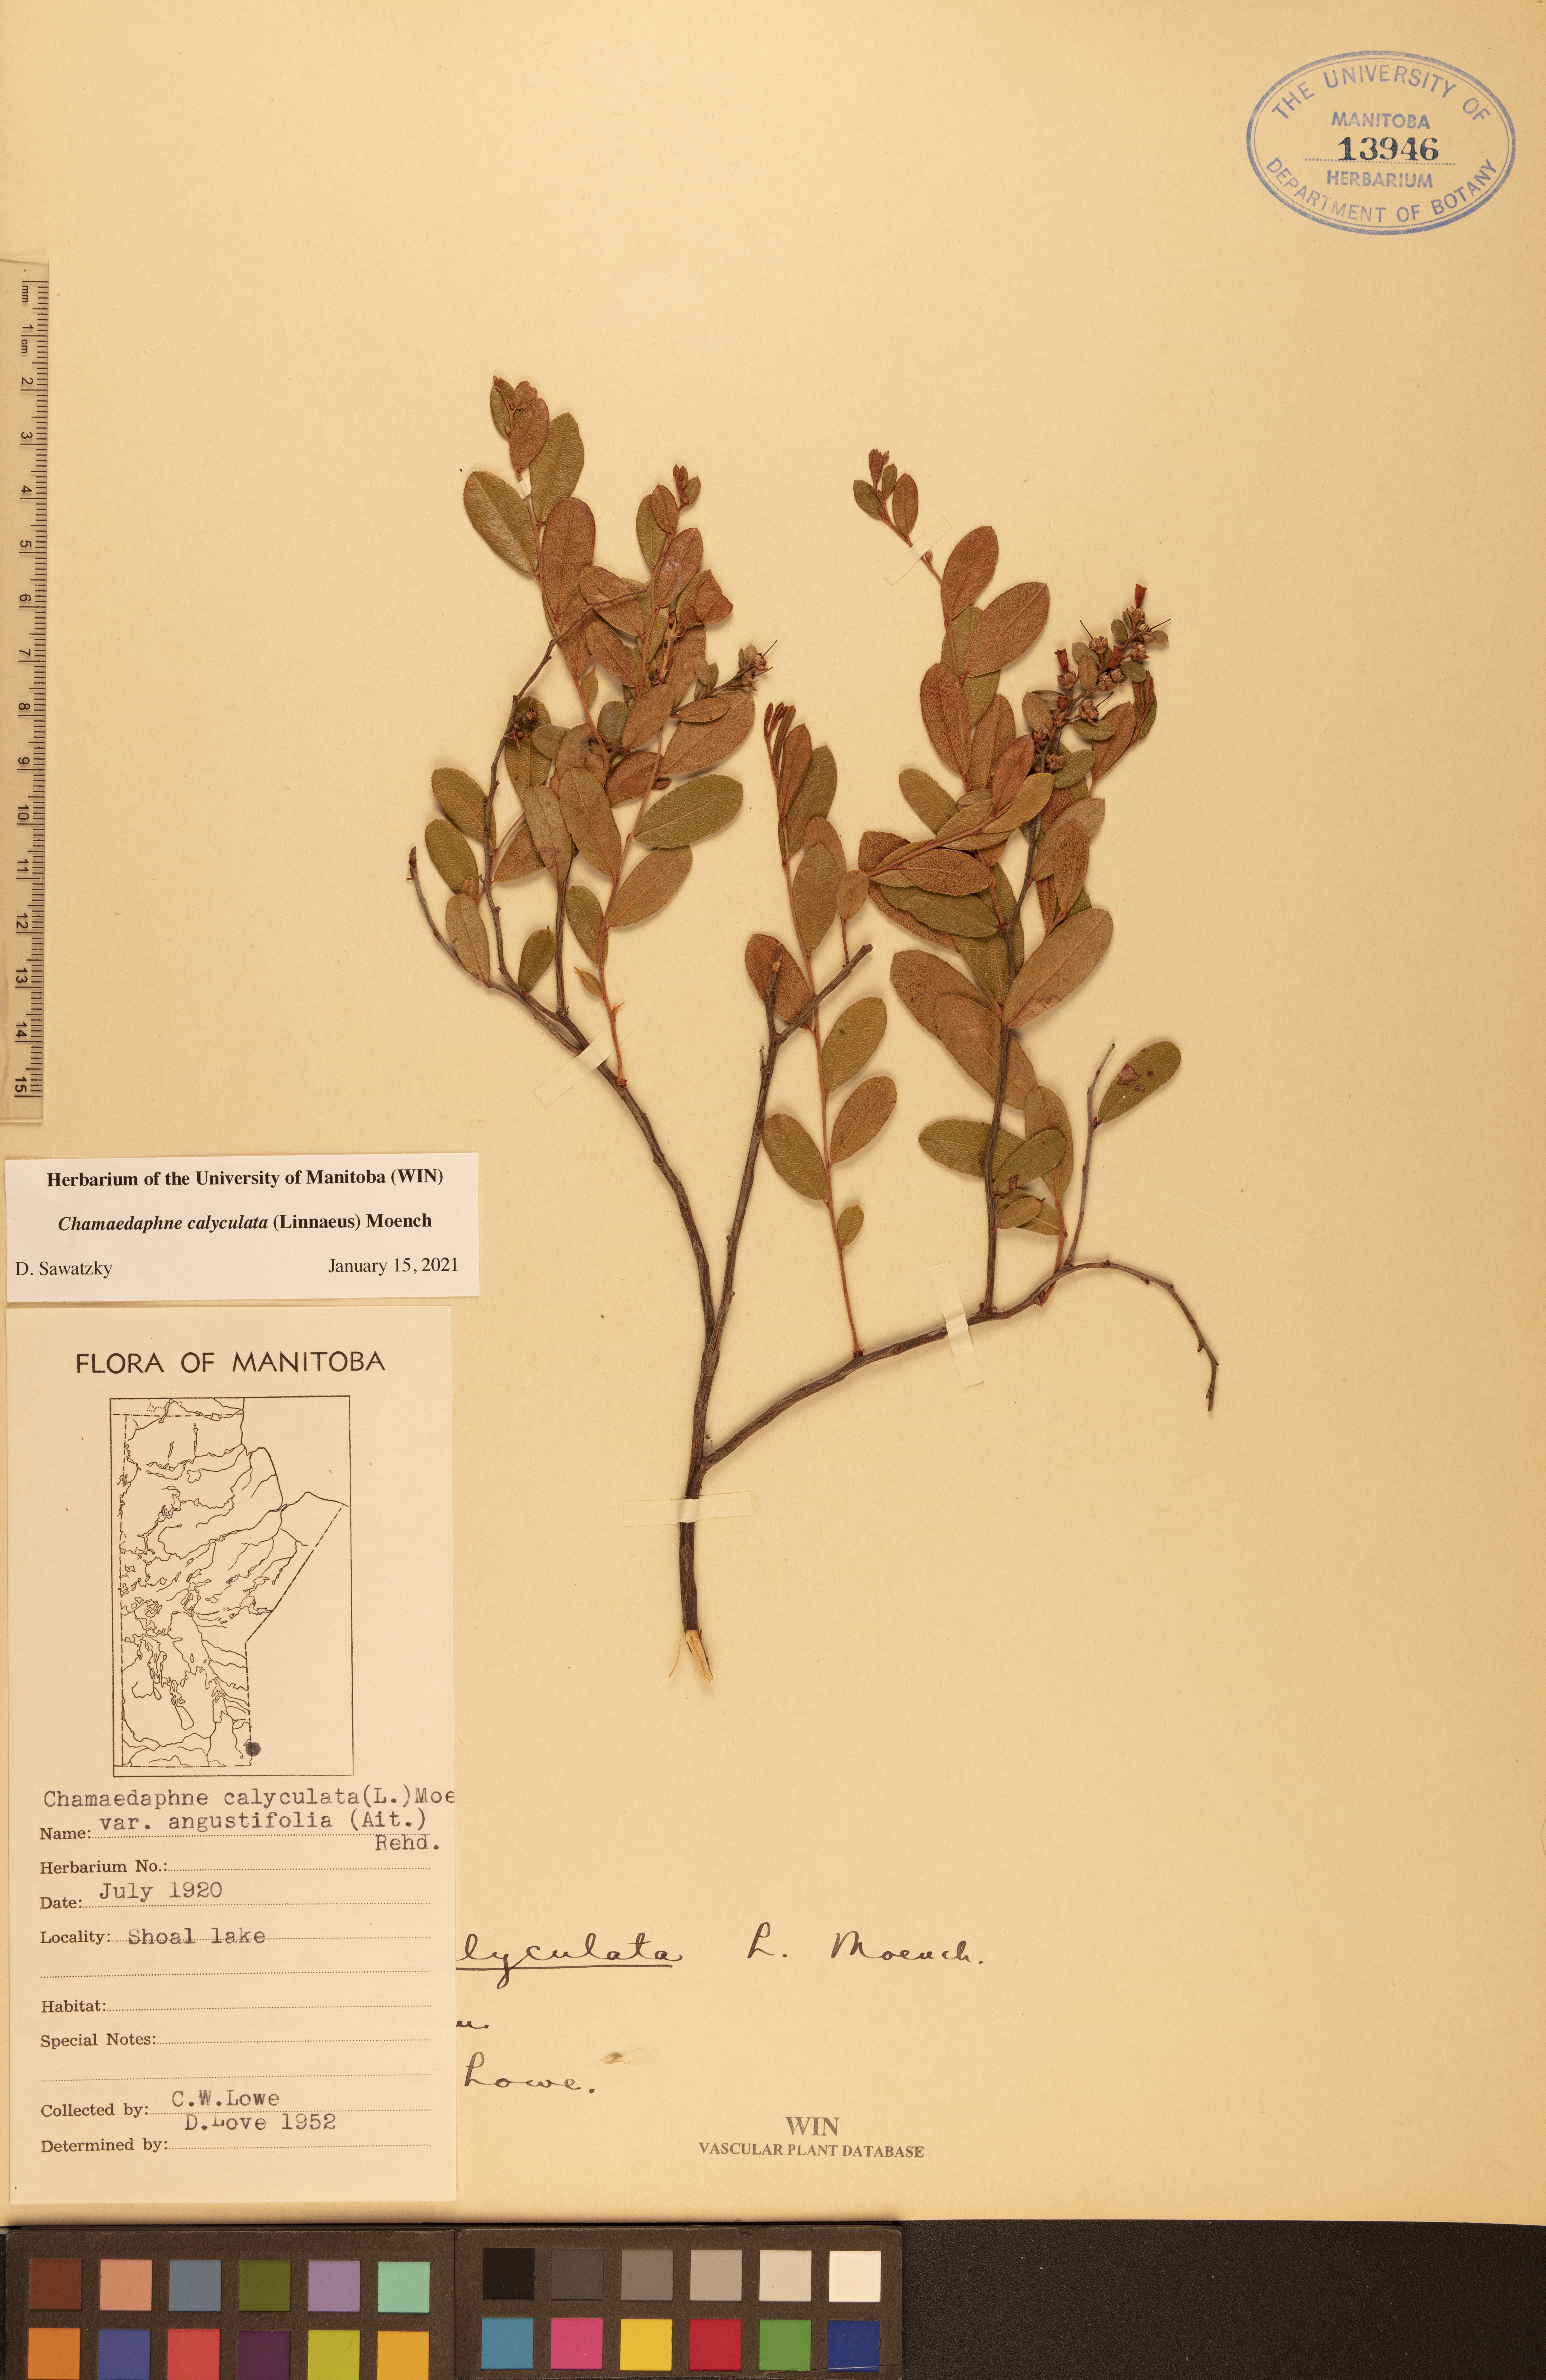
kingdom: Plantae
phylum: Tracheophyta
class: Magnoliopsida
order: Ericales
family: Ericaceae
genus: Chamaedaphne
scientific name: Chamaedaphne calyculata
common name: Leatherleaf
